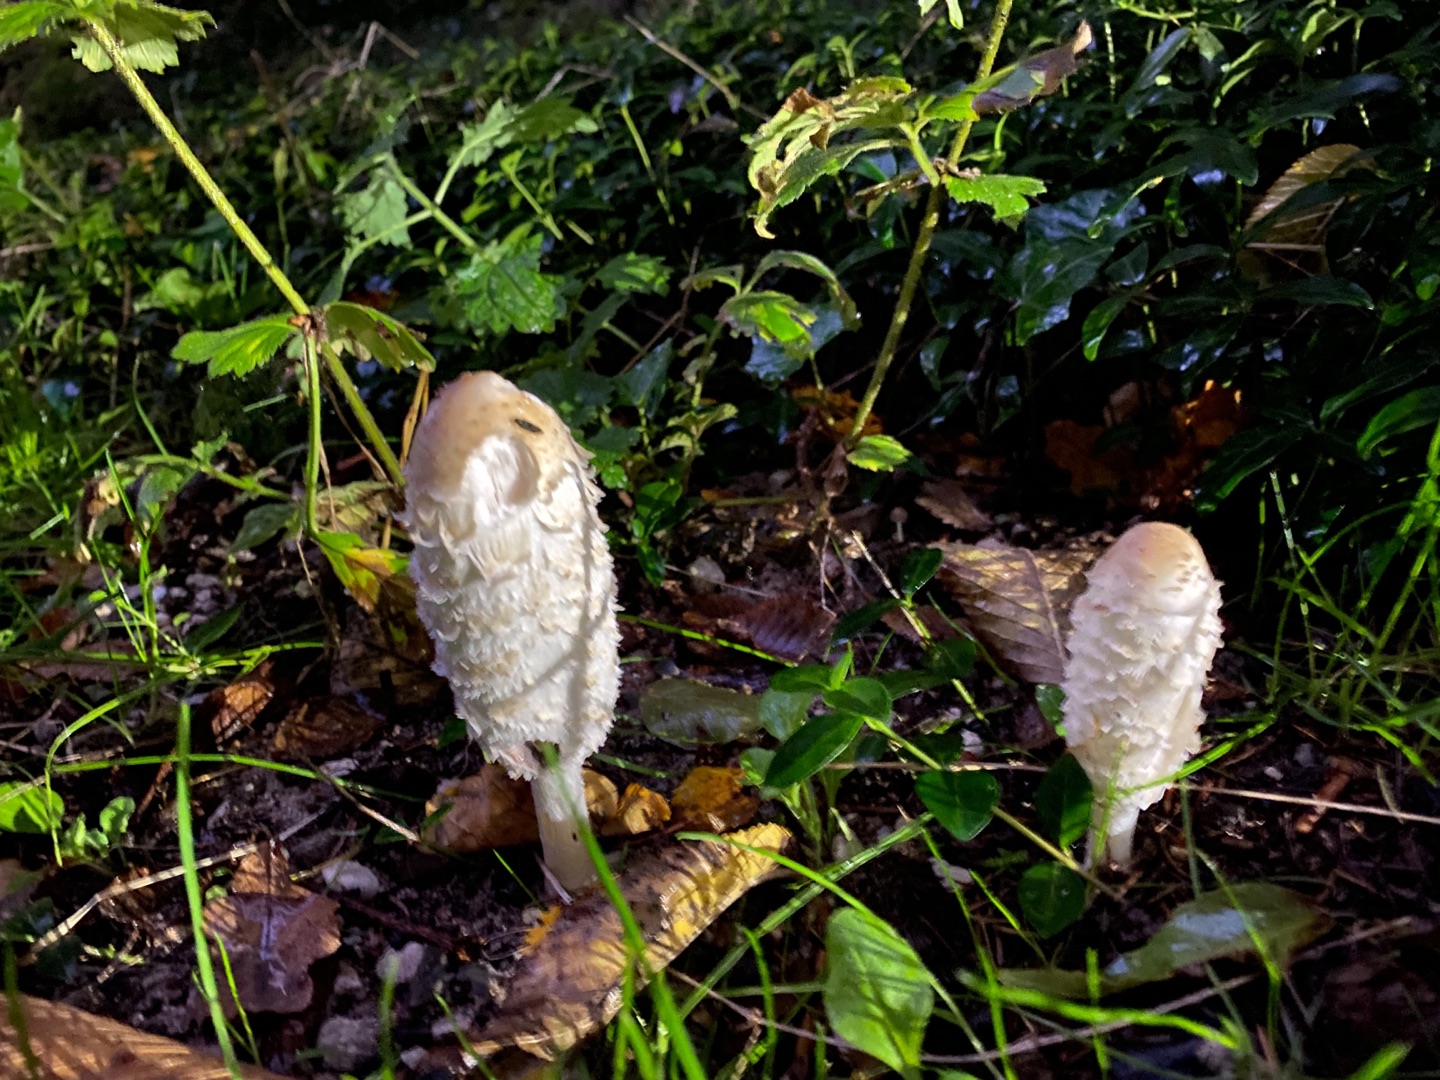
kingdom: Fungi
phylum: Basidiomycota
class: Agaricomycetes
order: Agaricales
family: Agaricaceae
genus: Coprinus
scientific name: Coprinus comatus
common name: Stor parykhat
